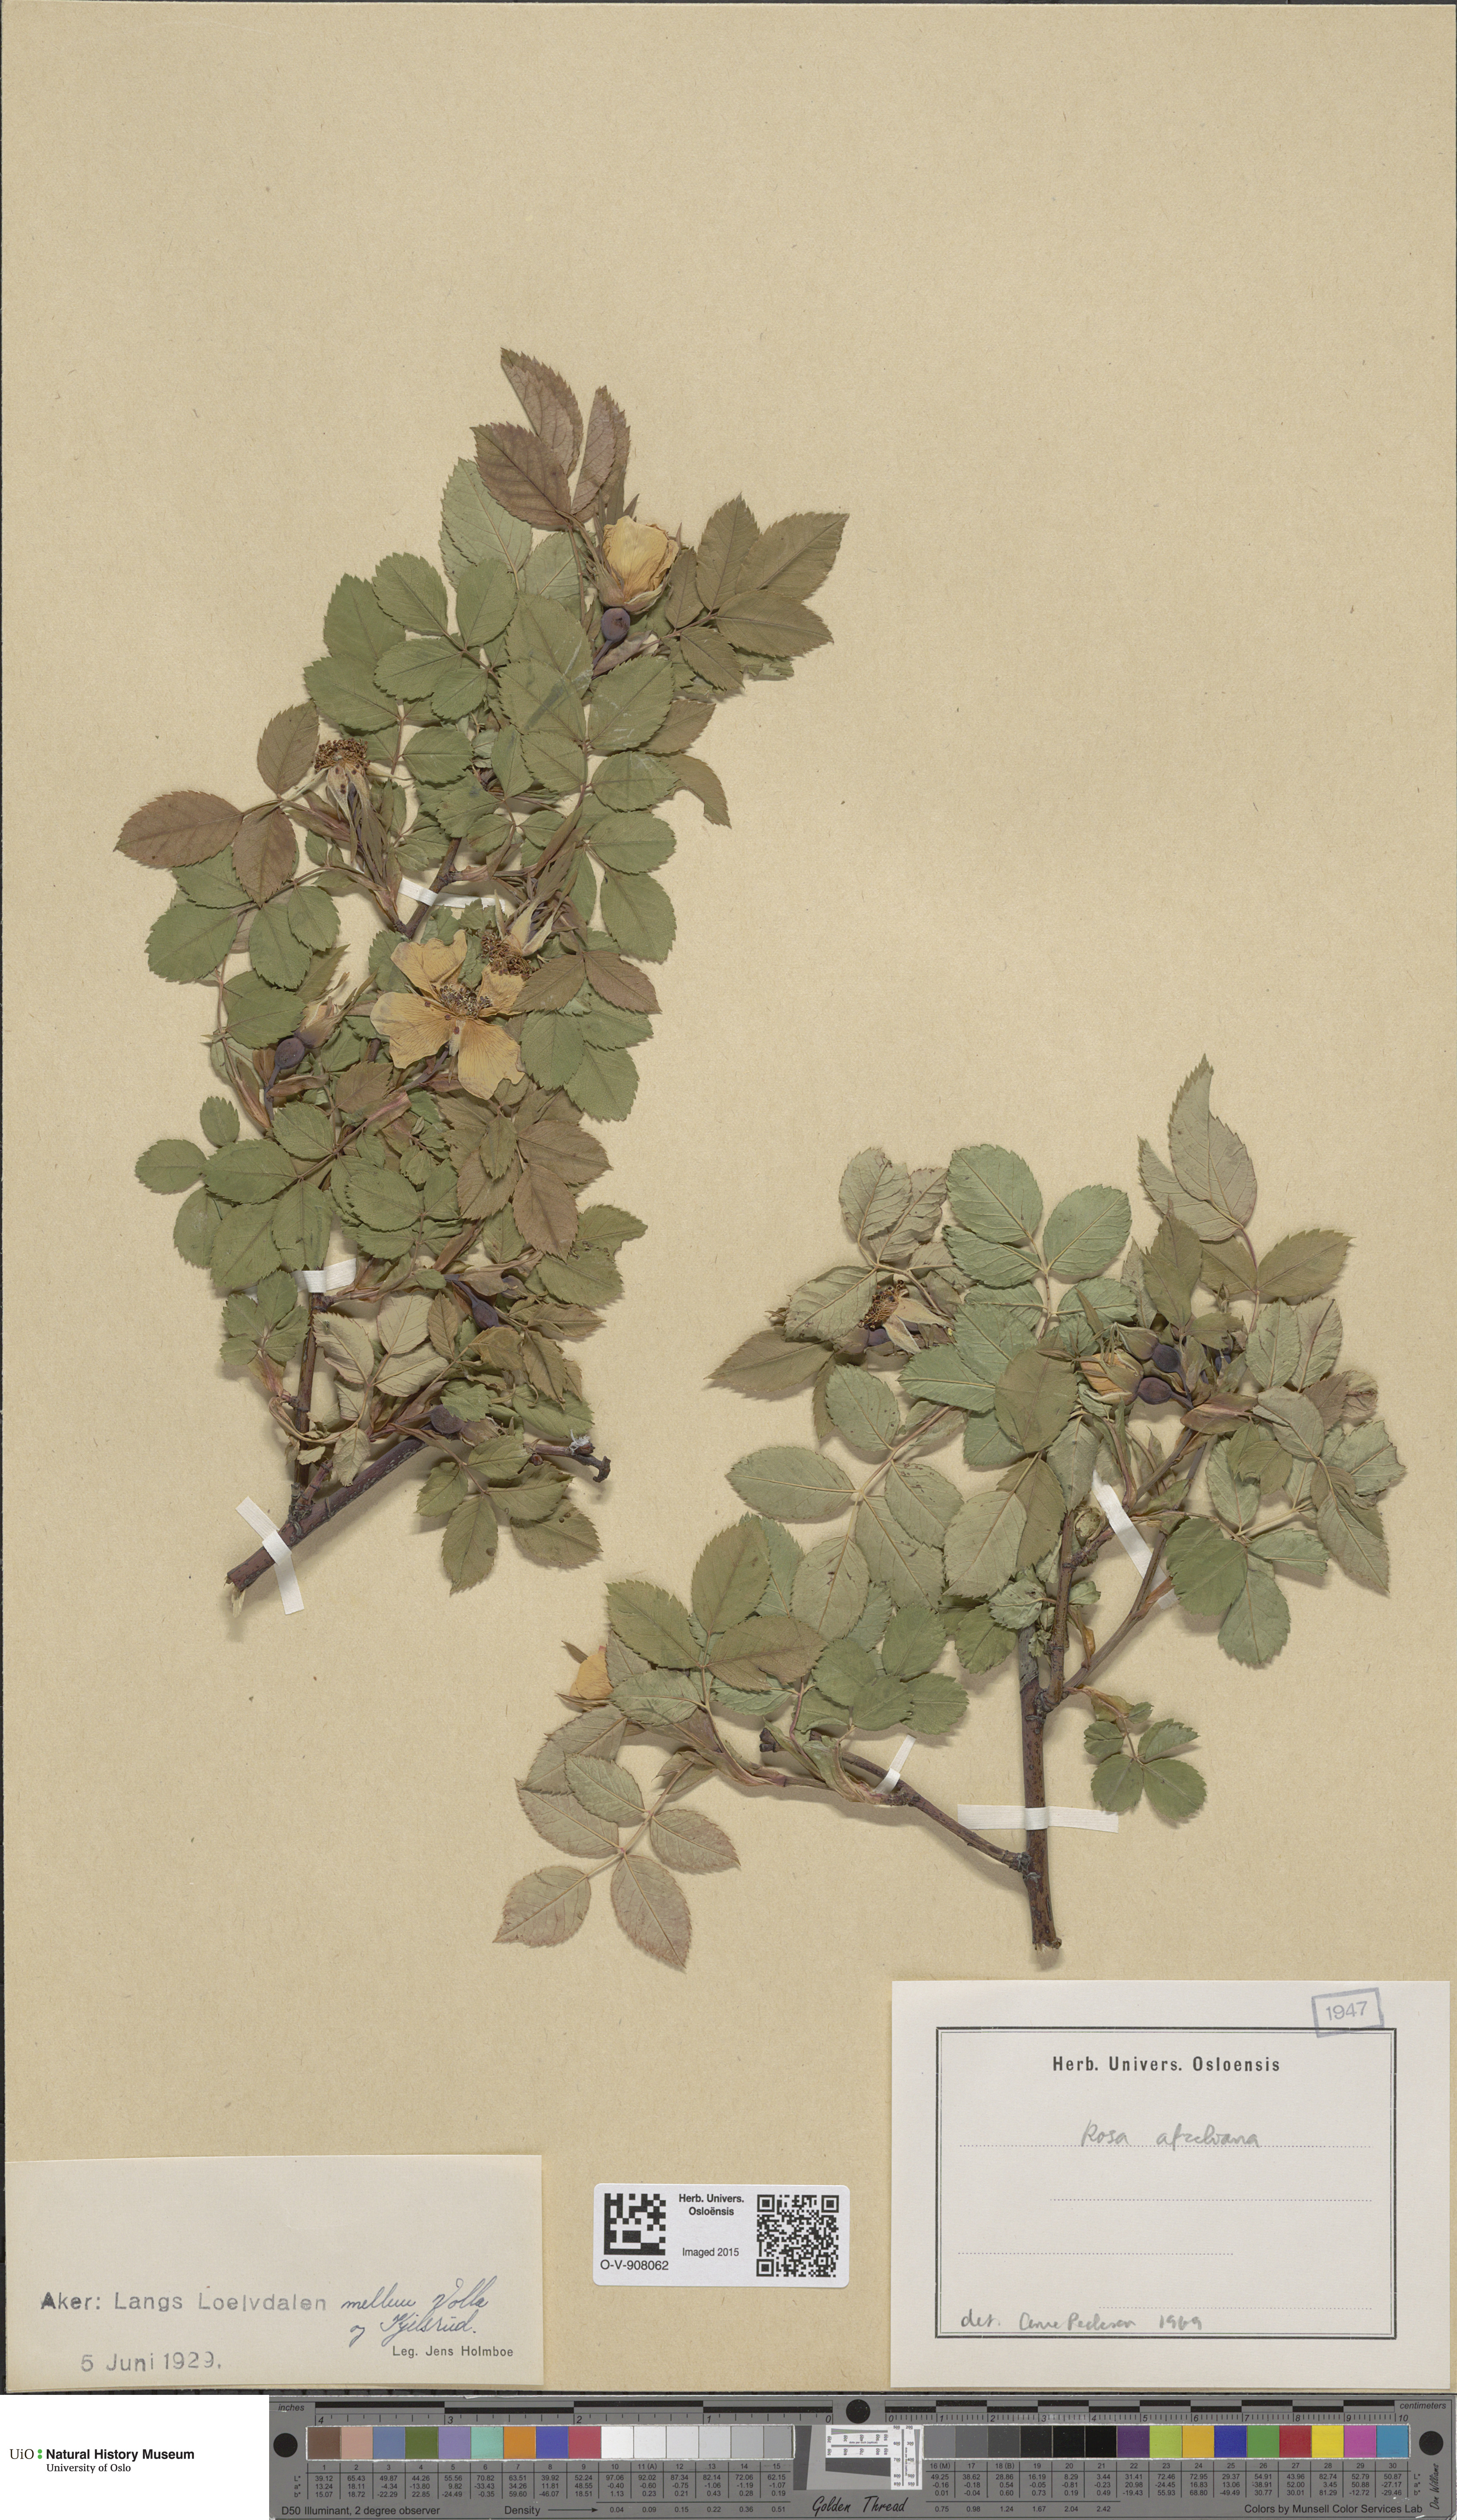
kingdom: Plantae
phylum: Tracheophyta
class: Magnoliopsida
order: Rosales
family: Rosaceae
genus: Rosa
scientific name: Rosa
